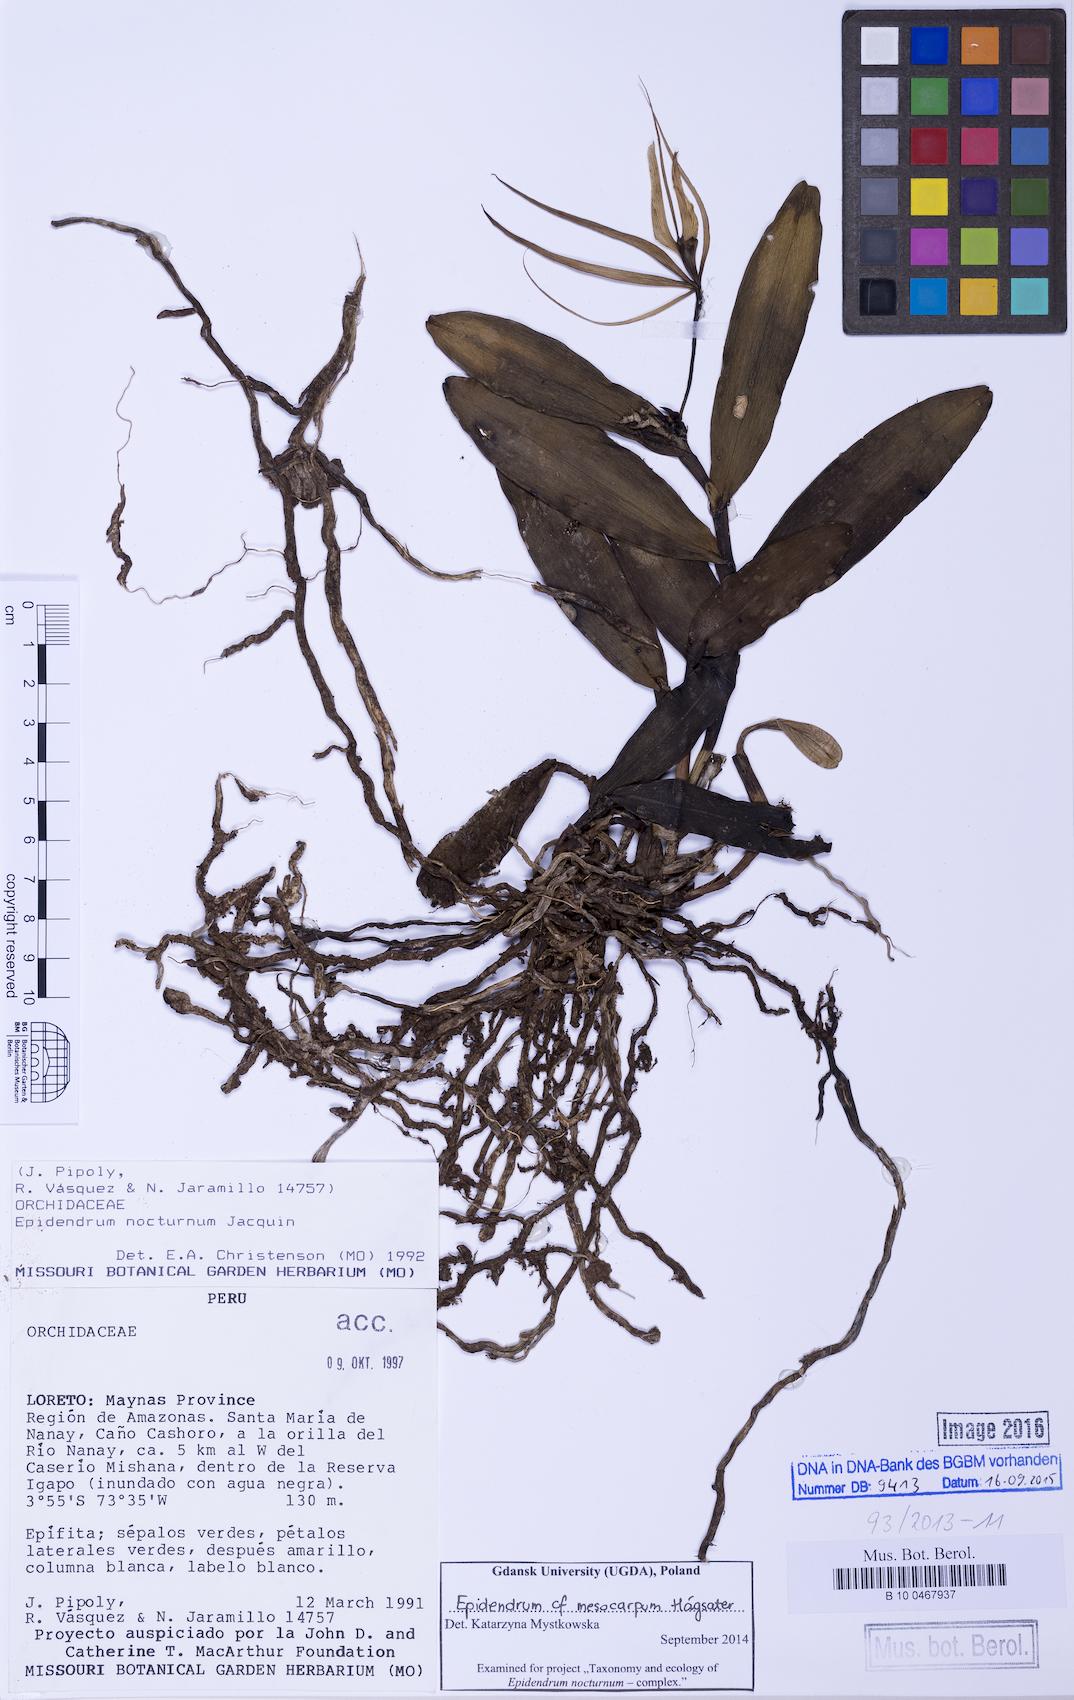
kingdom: Plantae
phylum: Tracheophyta
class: Liliopsida
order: Asparagales
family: Orchidaceae
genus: Epidendrum
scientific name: Epidendrum mesocarpum
